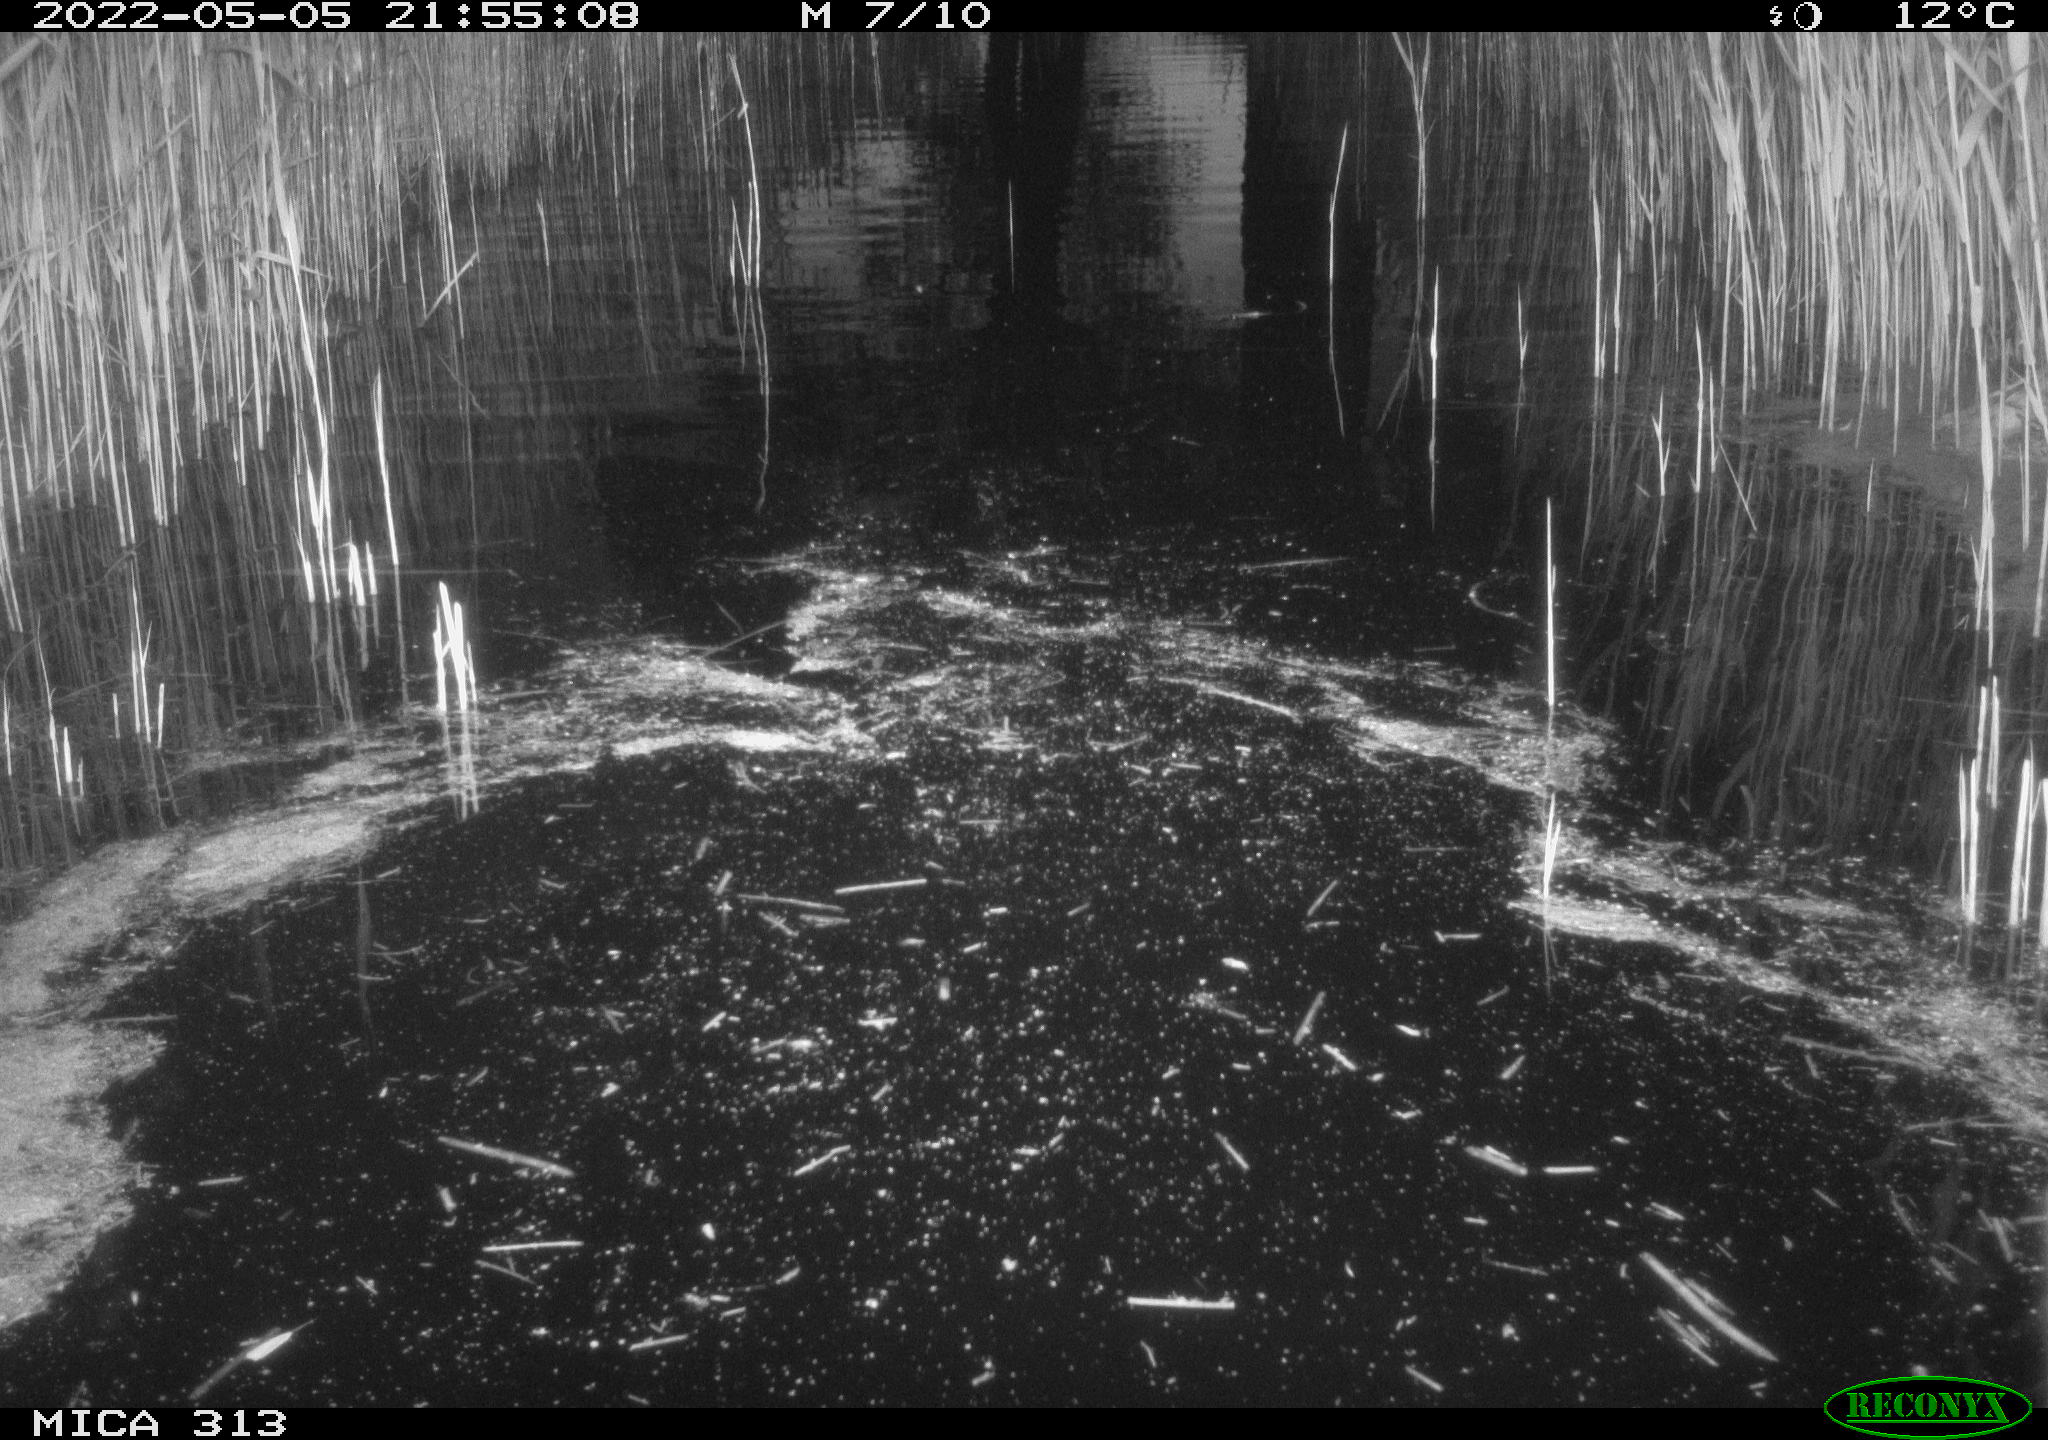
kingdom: Animalia
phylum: Chordata
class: Aves
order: Anseriformes
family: Anatidae
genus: Anas
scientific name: Anas platyrhynchos
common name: Mallard
